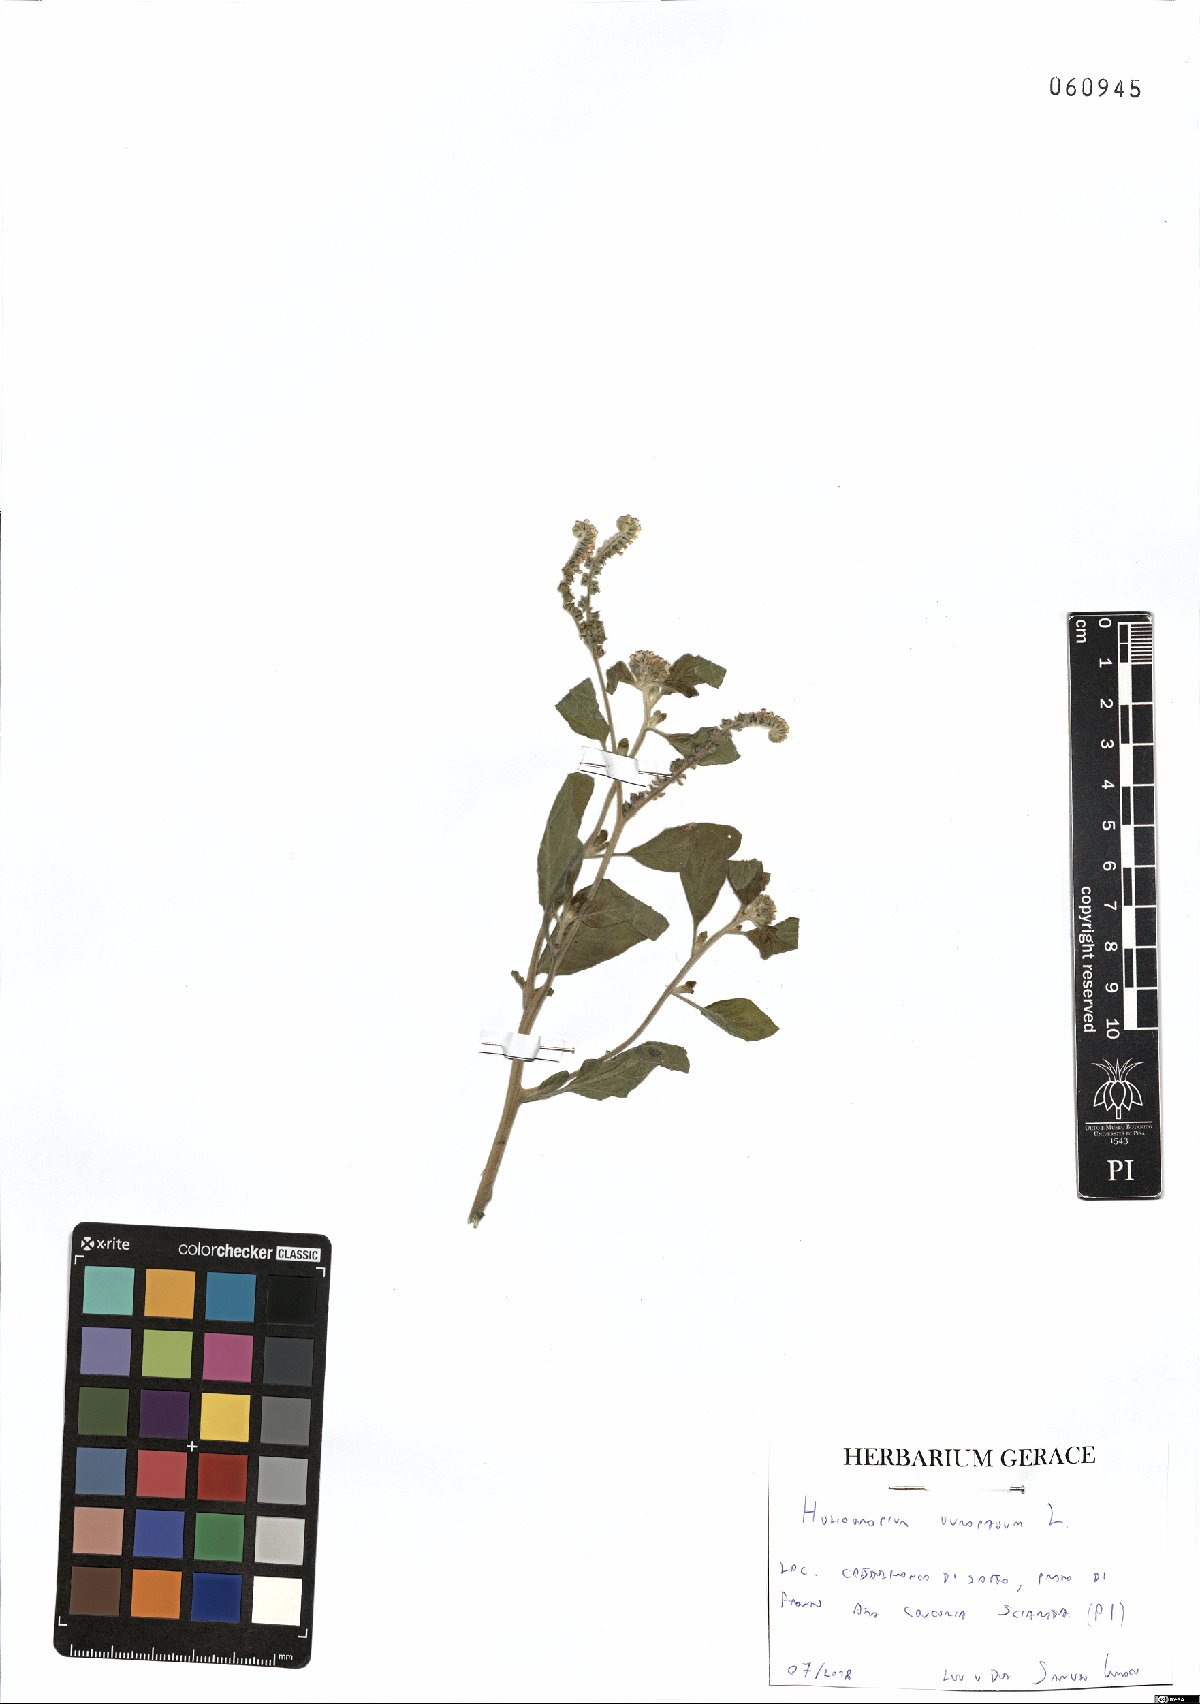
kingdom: Plantae
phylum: Tracheophyta
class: Magnoliopsida
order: Boraginales
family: Heliotropiaceae
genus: Heliotropium
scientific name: Heliotropium europaeum
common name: European heliotrope
